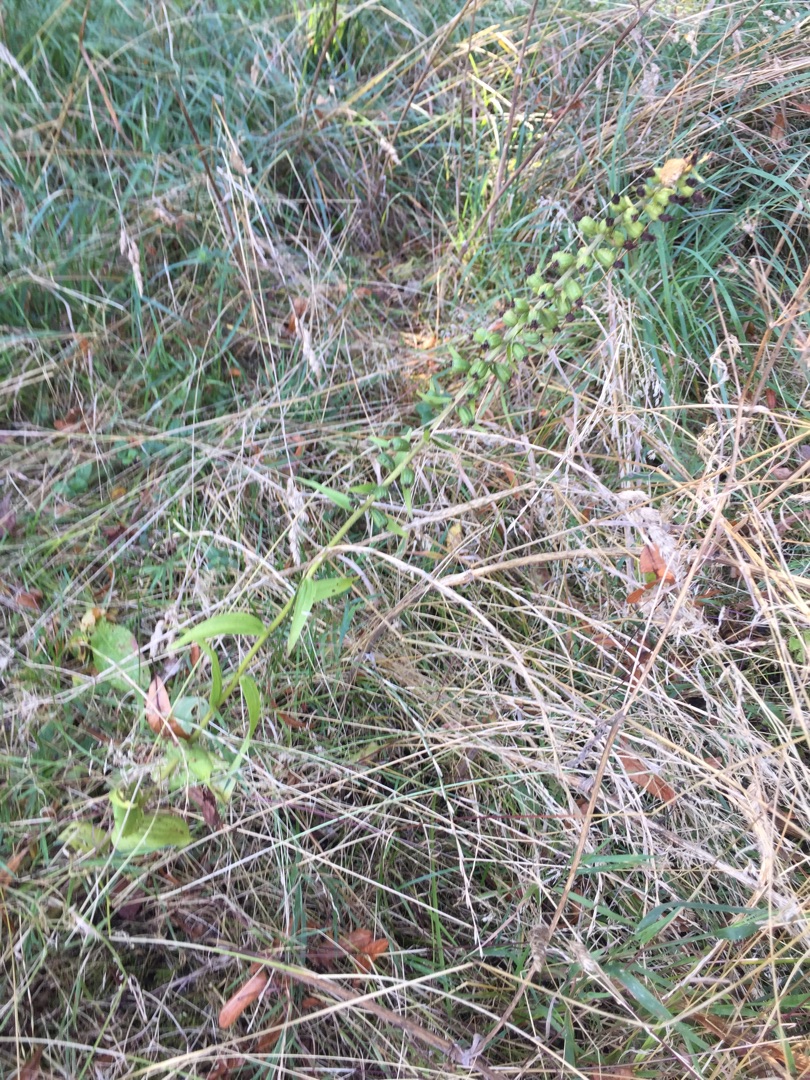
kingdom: Plantae
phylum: Tracheophyta
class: Liliopsida
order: Asparagales
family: Orchidaceae
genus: Epipactis
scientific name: Epipactis helleborine
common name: Skov-hullæbe
